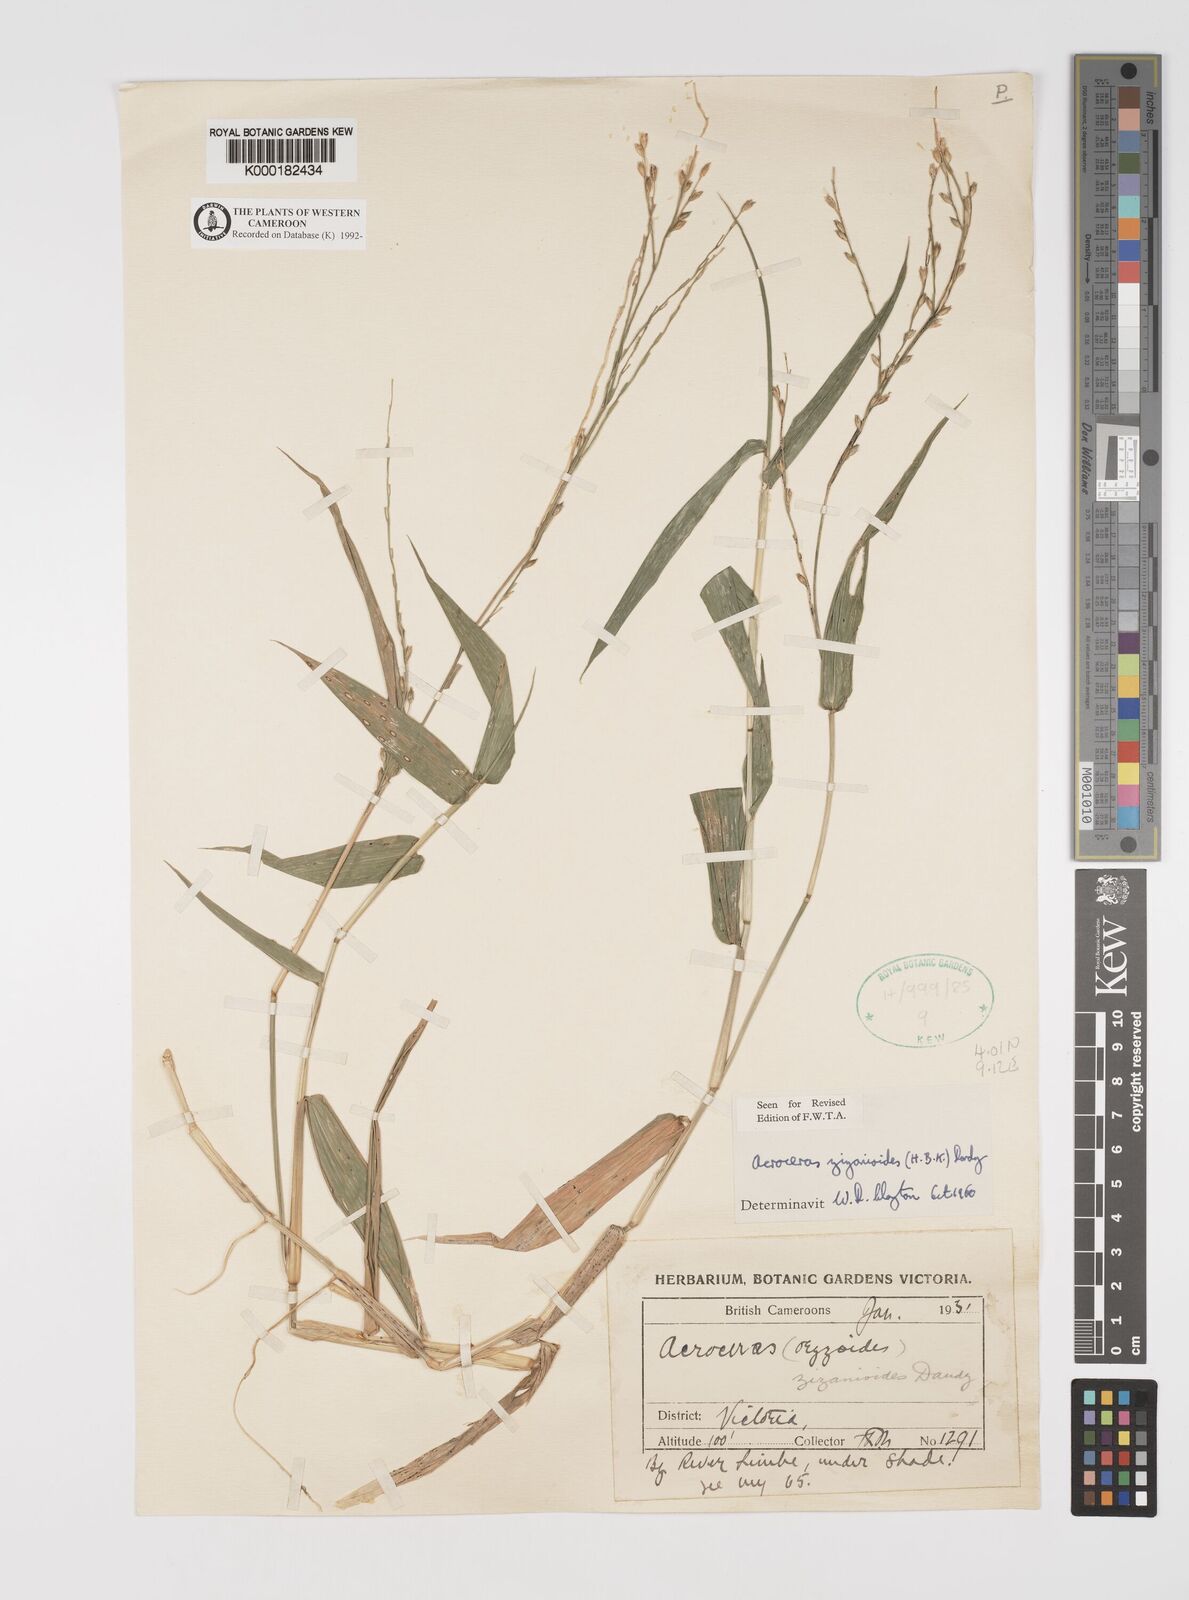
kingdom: Plantae
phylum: Tracheophyta
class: Liliopsida
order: Poales
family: Poaceae
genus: Acroceras
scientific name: Acroceras zizanioides
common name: Oat grass
